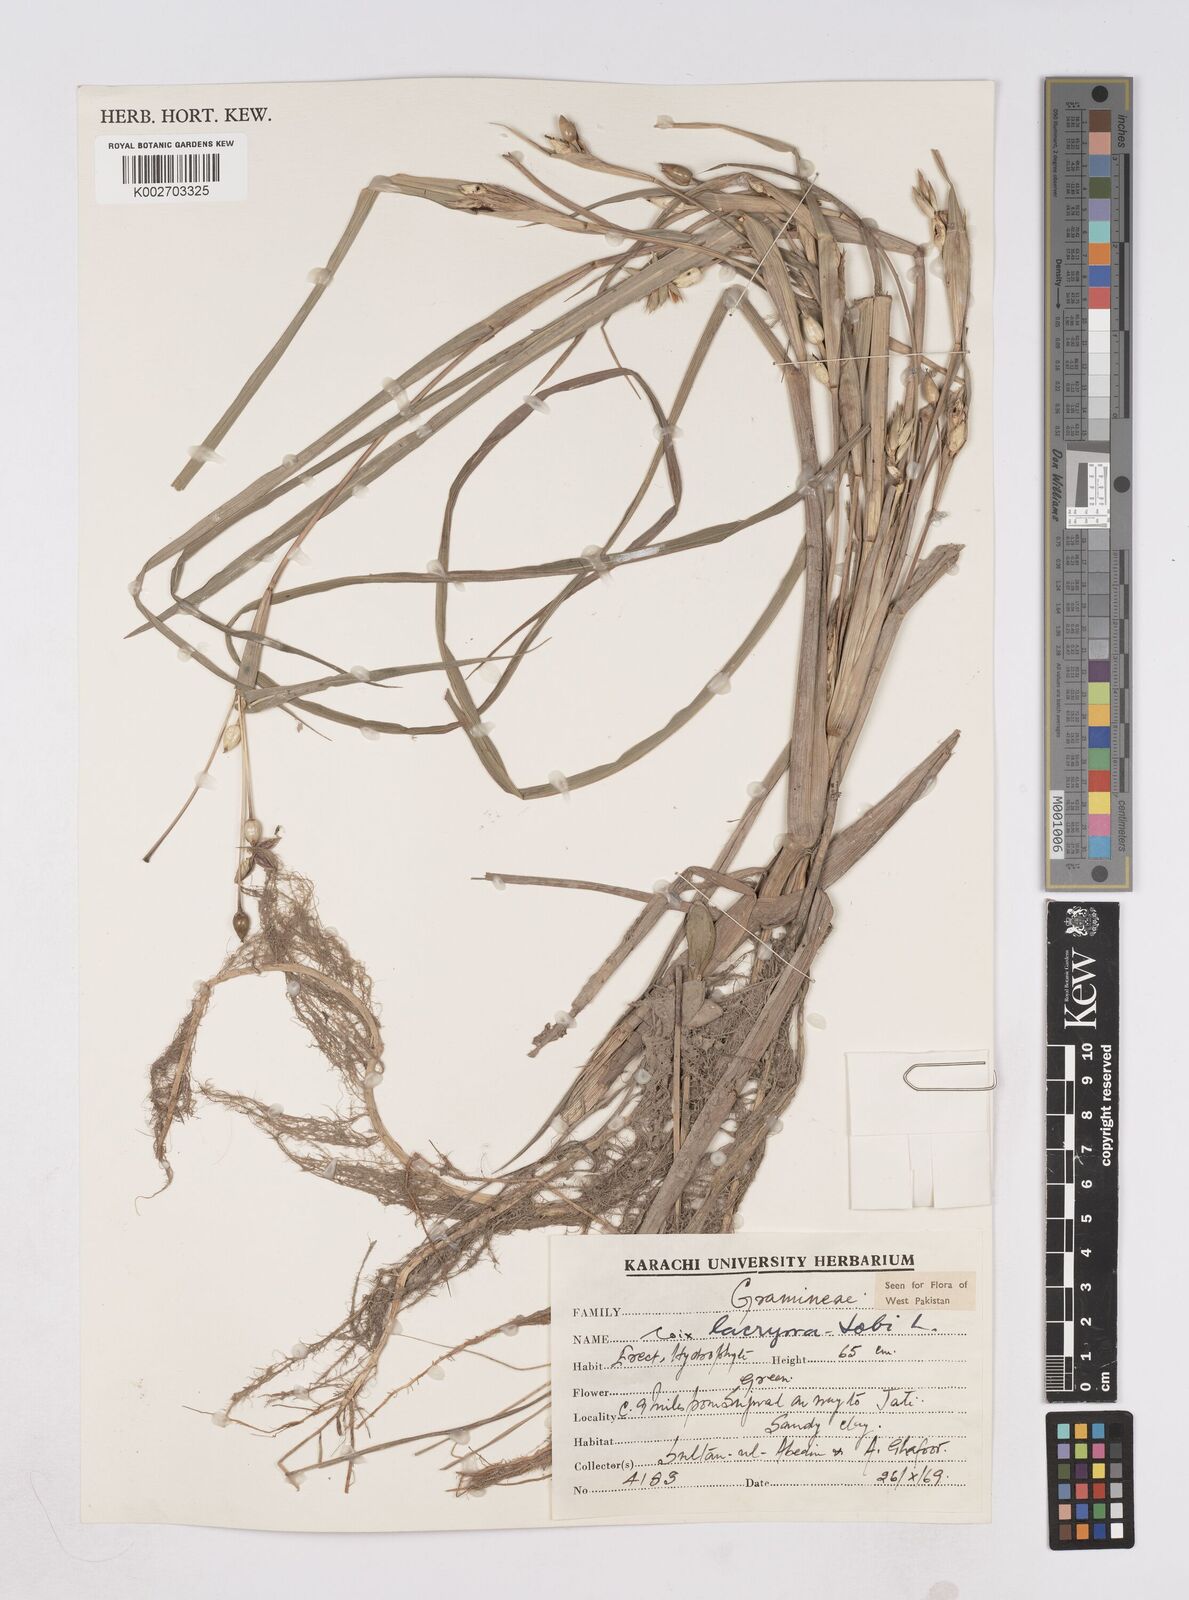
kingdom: Plantae
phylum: Tracheophyta
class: Liliopsida
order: Poales
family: Poaceae
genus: Coix
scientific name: Coix lacryma-jobi
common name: Job's tears
